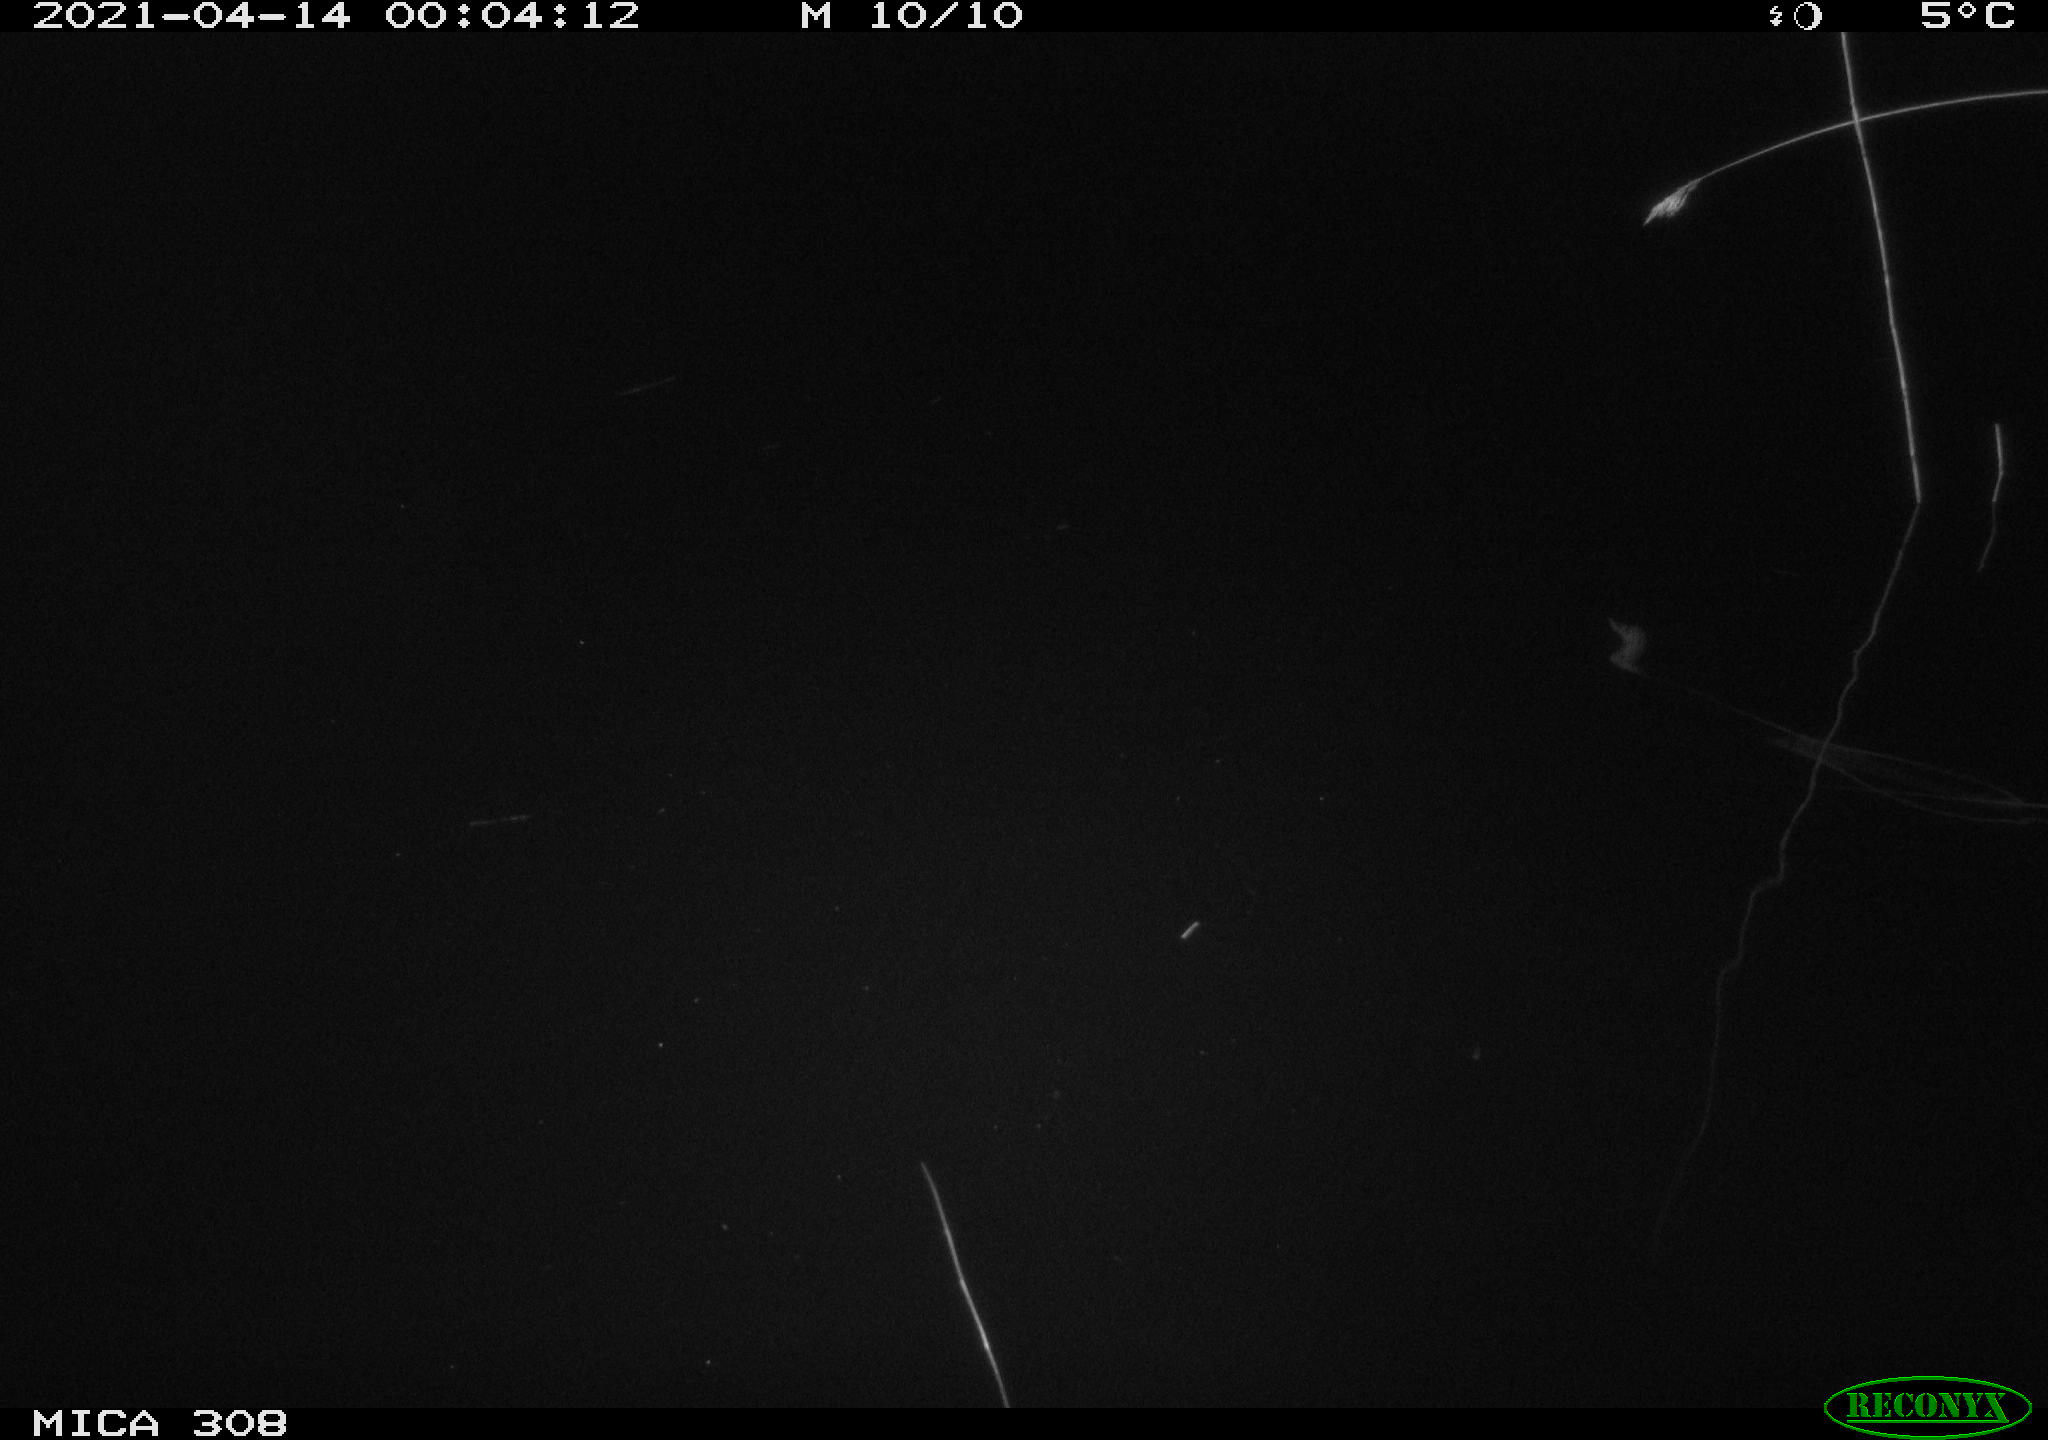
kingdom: Animalia
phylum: Chordata
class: Mammalia
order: Rodentia
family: Cricetidae
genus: Ondatra
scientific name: Ondatra zibethicus
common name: Muskrat
